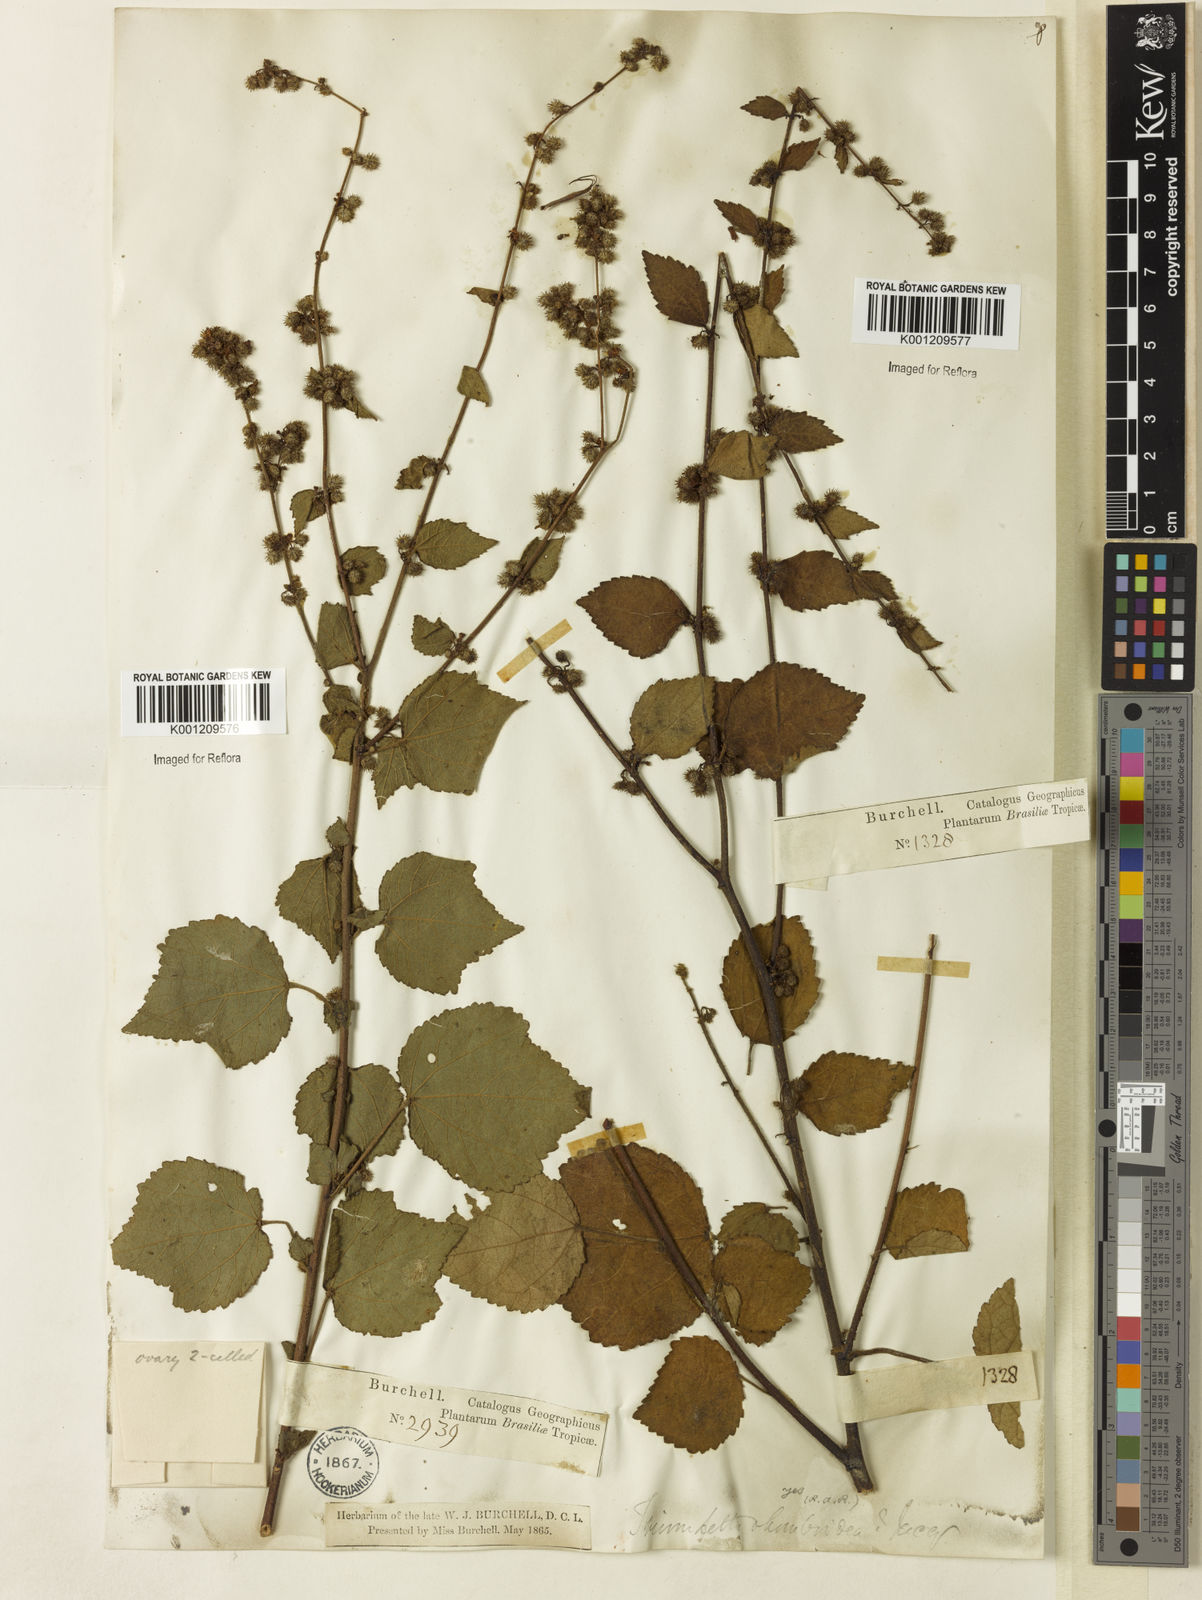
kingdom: Plantae
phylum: Tracheophyta
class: Magnoliopsida
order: Malvales
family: Malvaceae
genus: Triumfetta
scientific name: Triumfetta rhomboidea
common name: Diamond burbark
